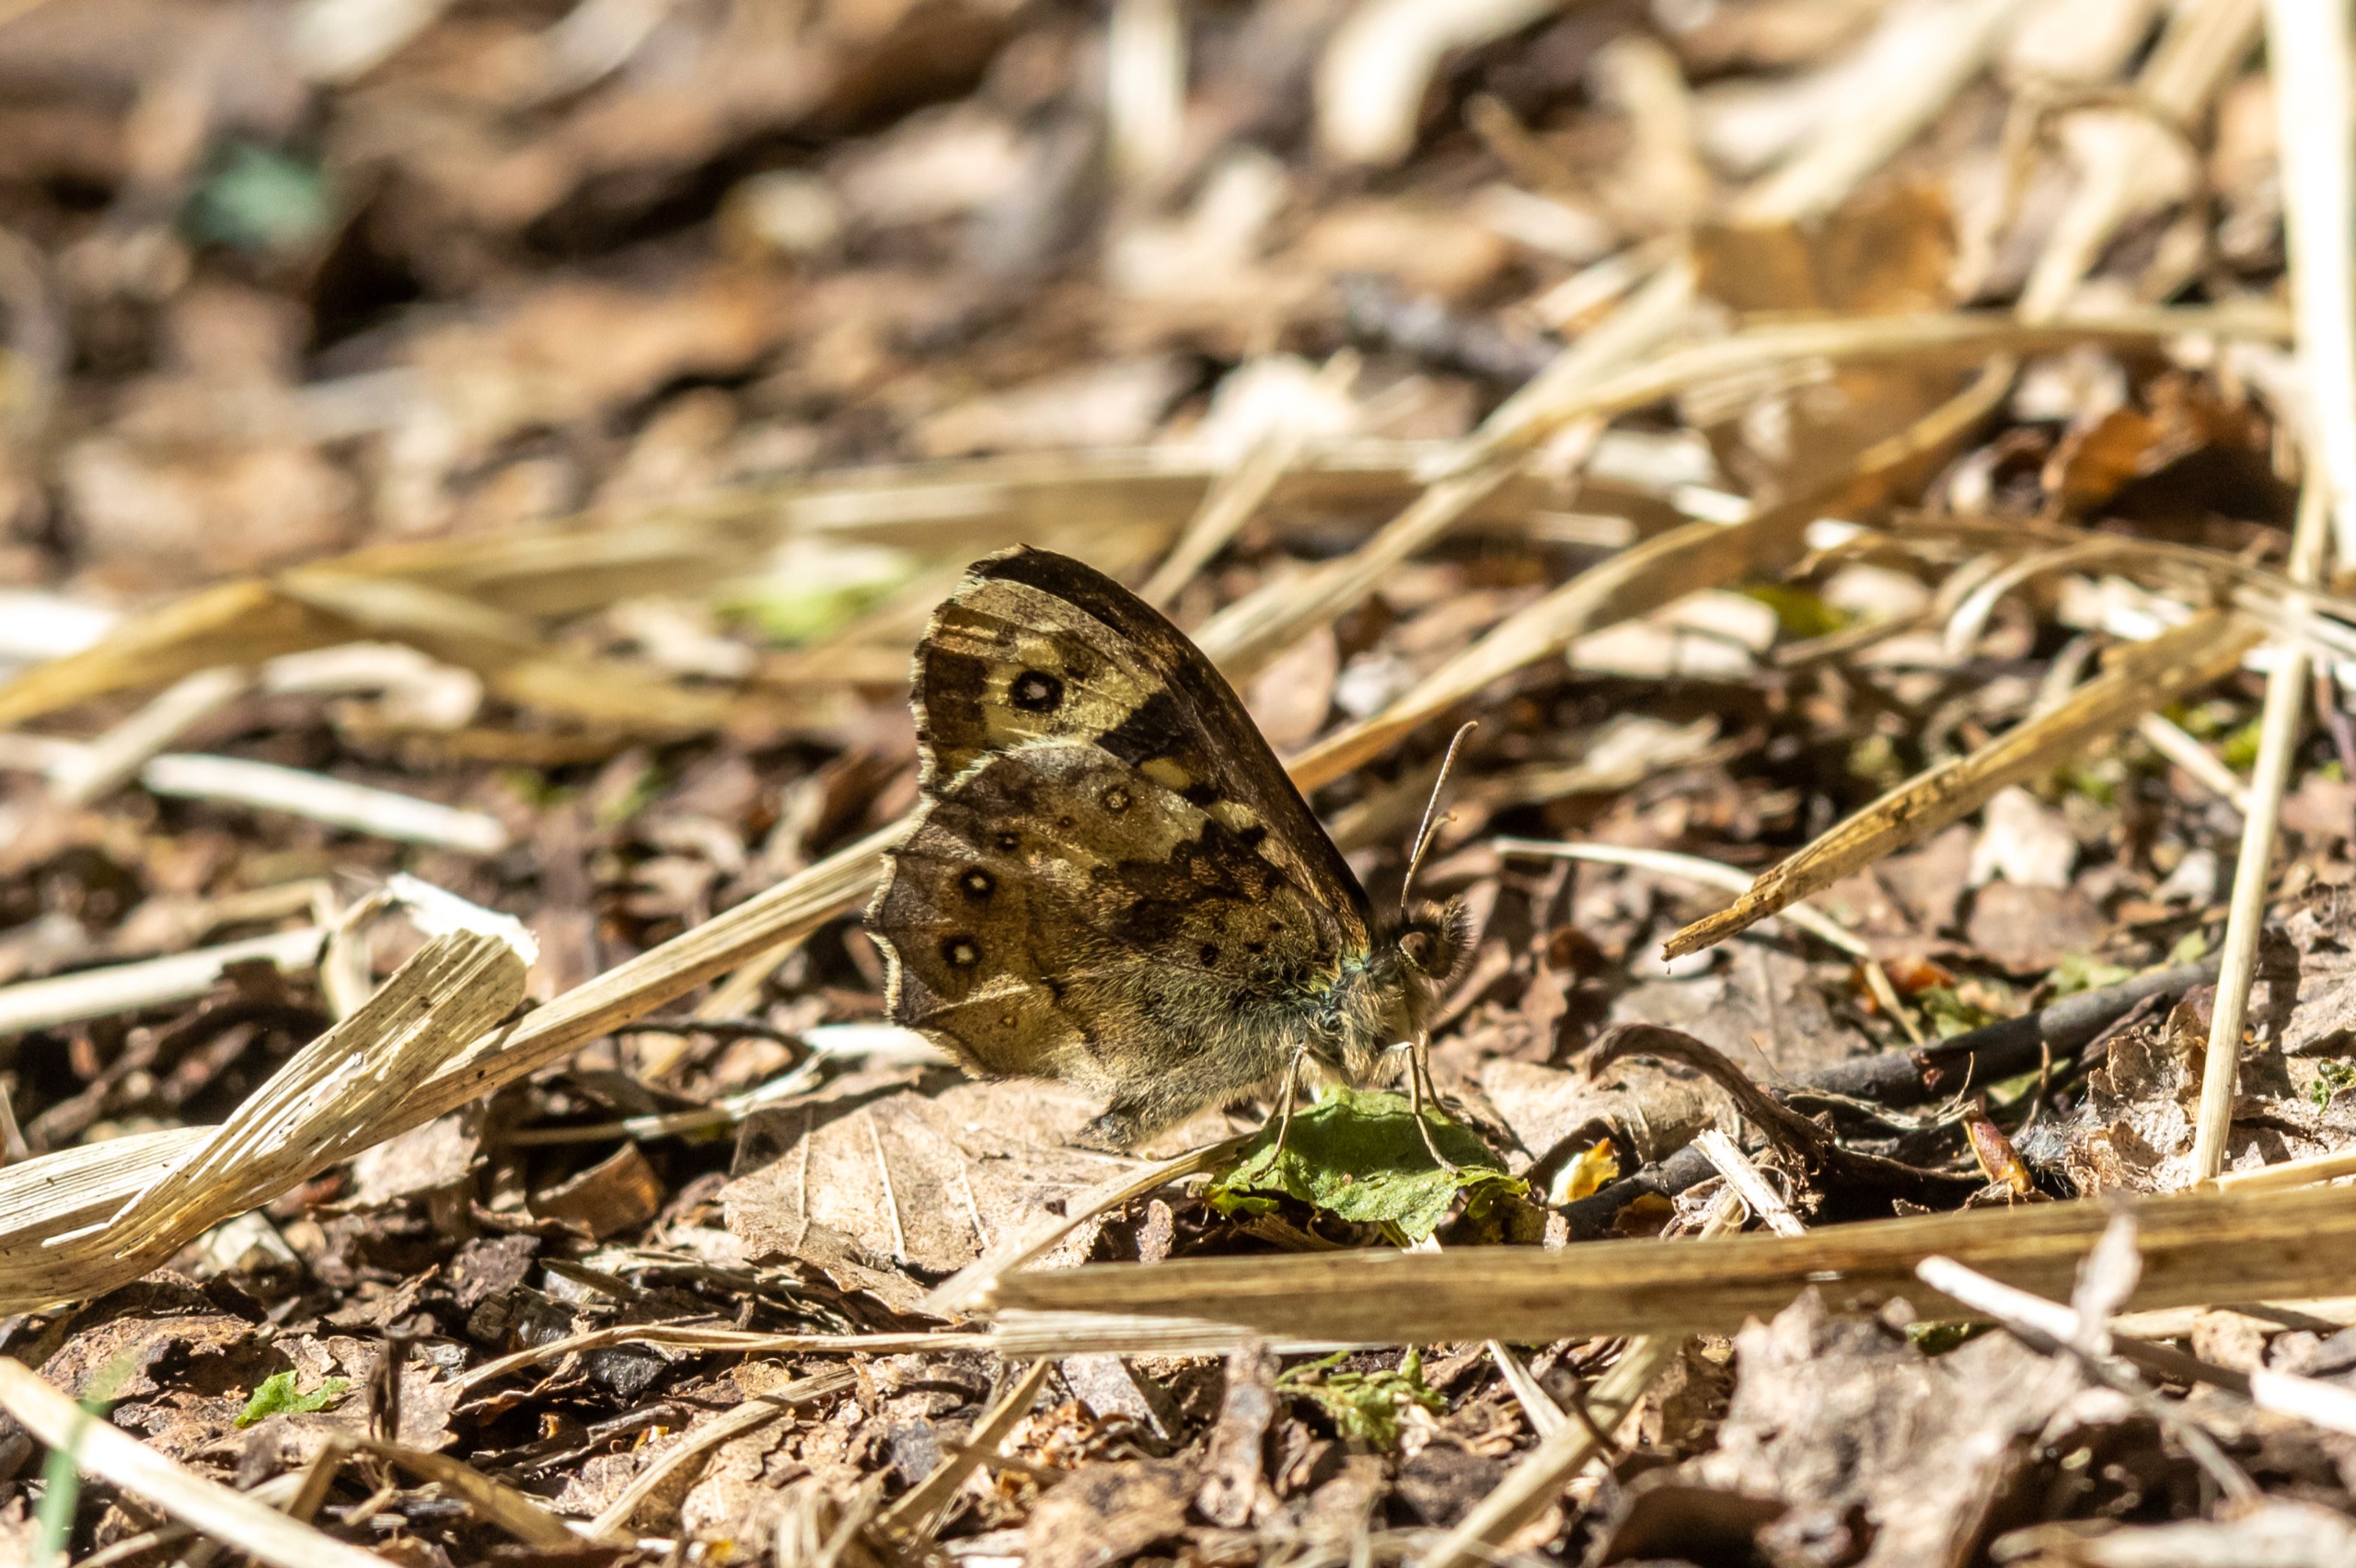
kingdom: Animalia
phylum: Arthropoda
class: Insecta
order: Lepidoptera
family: Nymphalidae
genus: Pararge
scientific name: Pararge aegeria
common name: Skovrandøje
